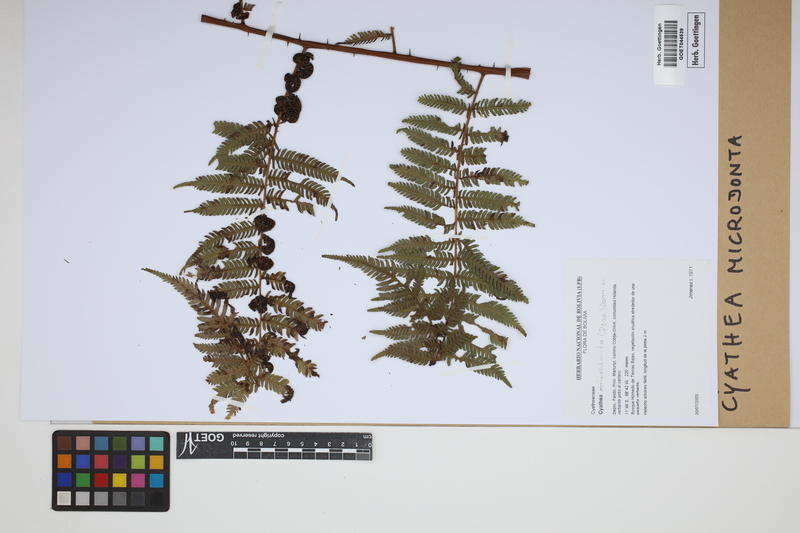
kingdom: Plantae
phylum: Tracheophyta
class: Polypodiopsida
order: Cyatheales
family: Cyatheaceae
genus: Cyathea
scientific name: Cyathea microdonta
